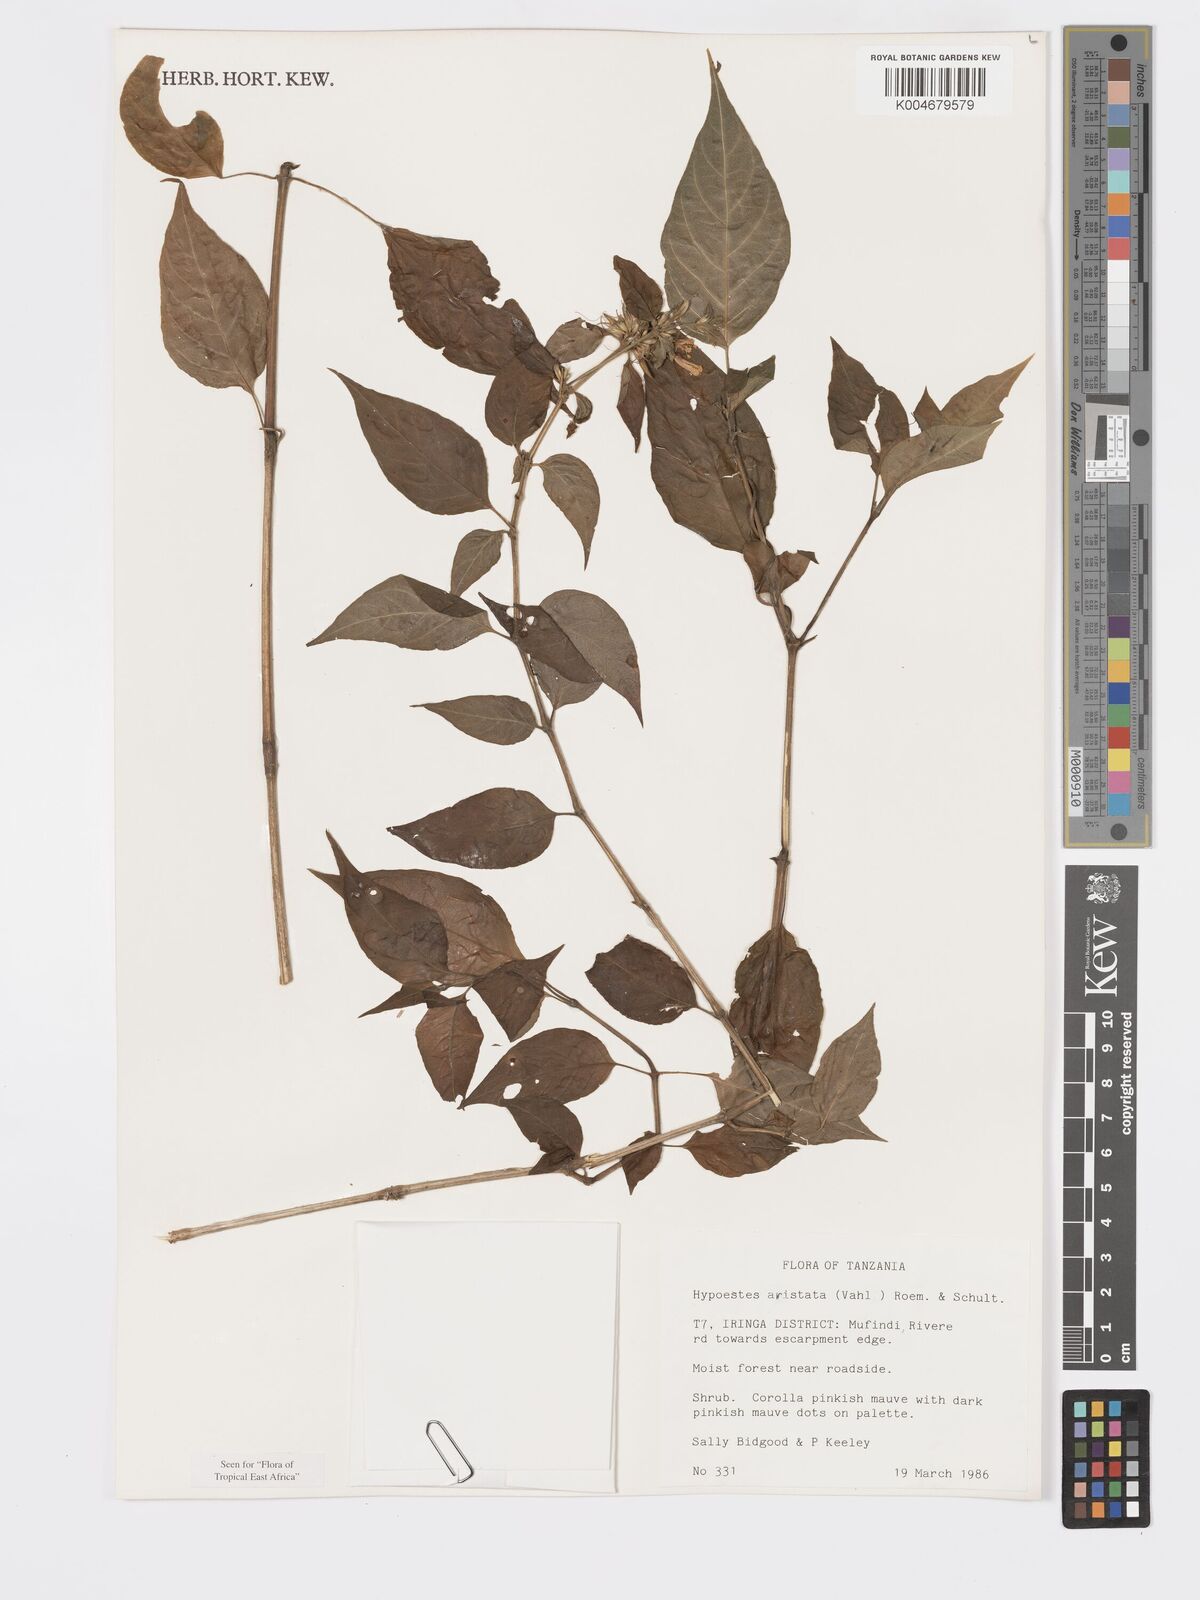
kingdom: Plantae
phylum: Tracheophyta
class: Magnoliopsida
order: Lamiales
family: Acanthaceae
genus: Hypoestes
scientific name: Hypoestes aristata
